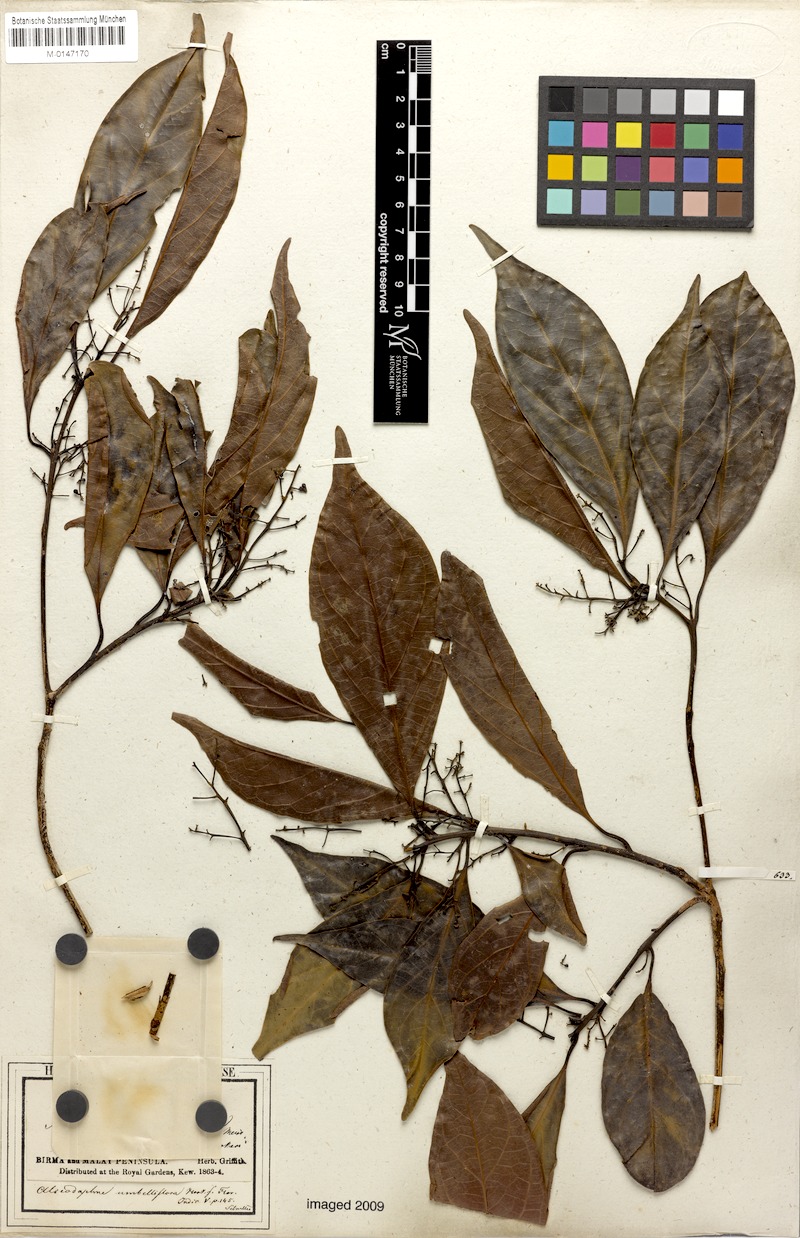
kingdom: Plantae
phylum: Tracheophyta
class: Magnoliopsida
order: Laurales
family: Lauraceae
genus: Nothaphoebe
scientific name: Nothaphoebe umbelliflora
